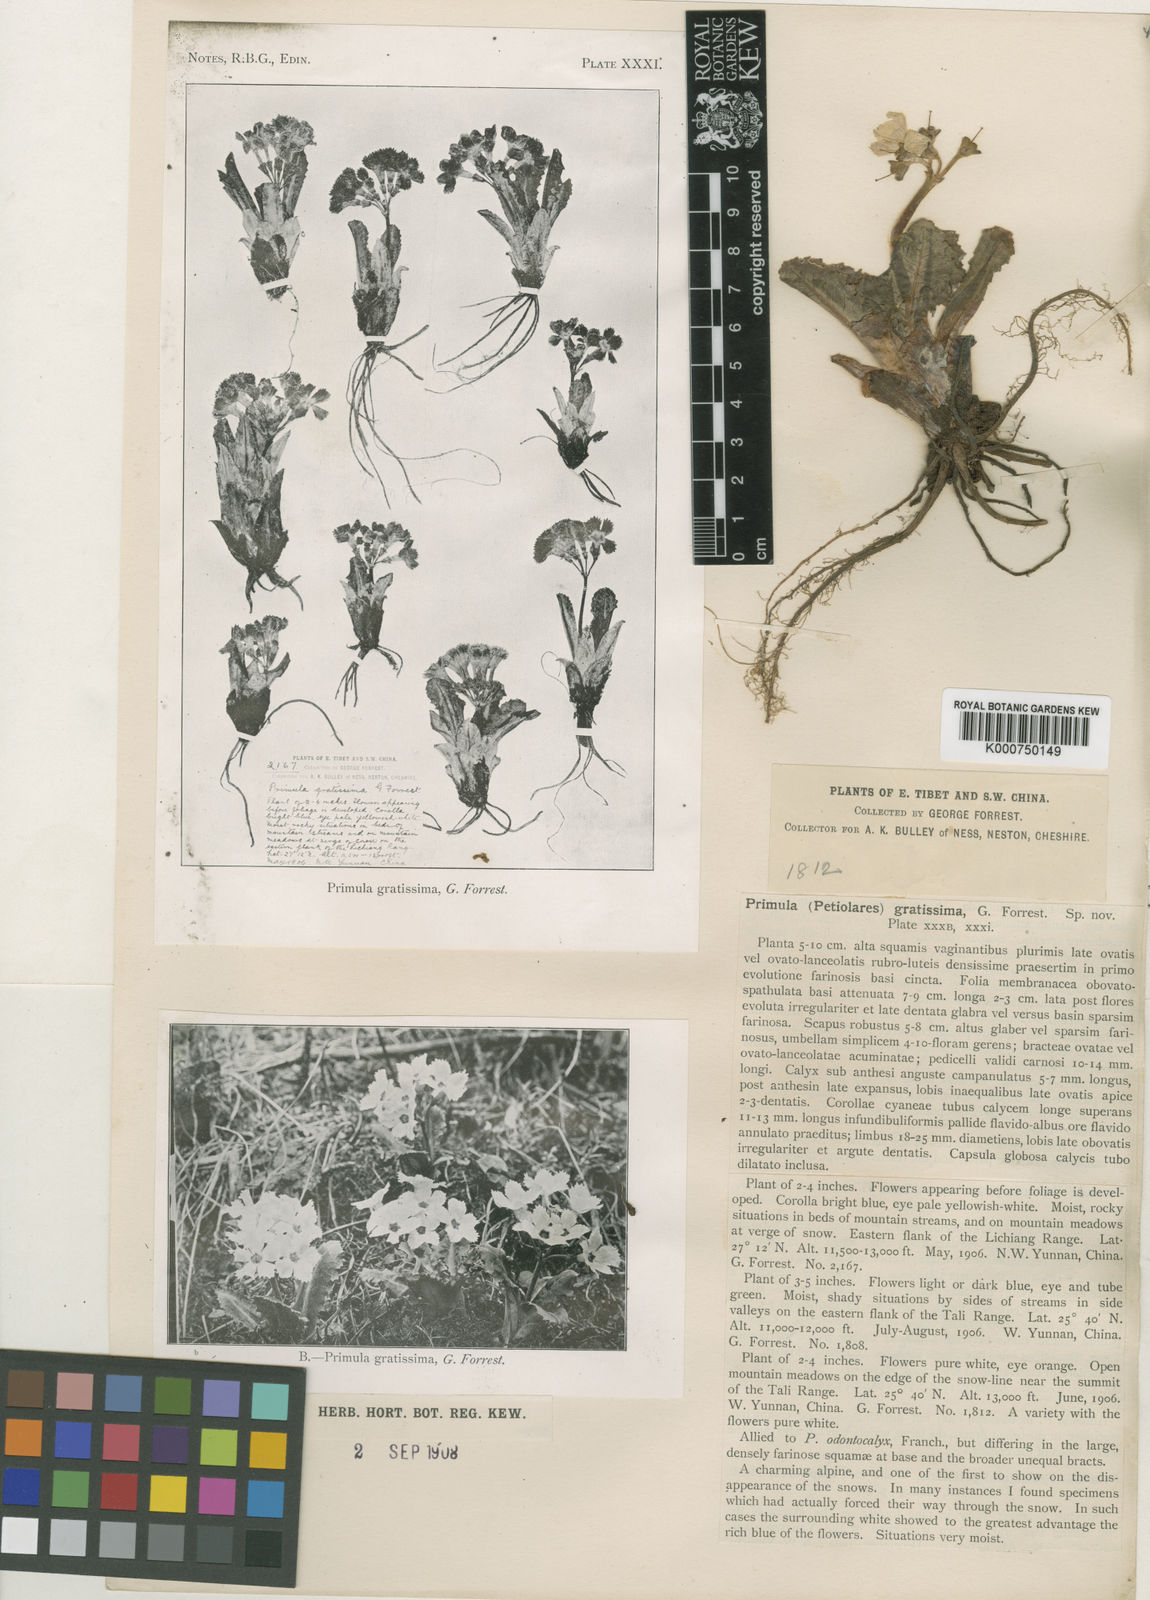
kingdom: Plantae
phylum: Tracheophyta
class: Magnoliopsida
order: Ericales
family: Primulaceae
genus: Primula
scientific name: Primula sonchifolia
